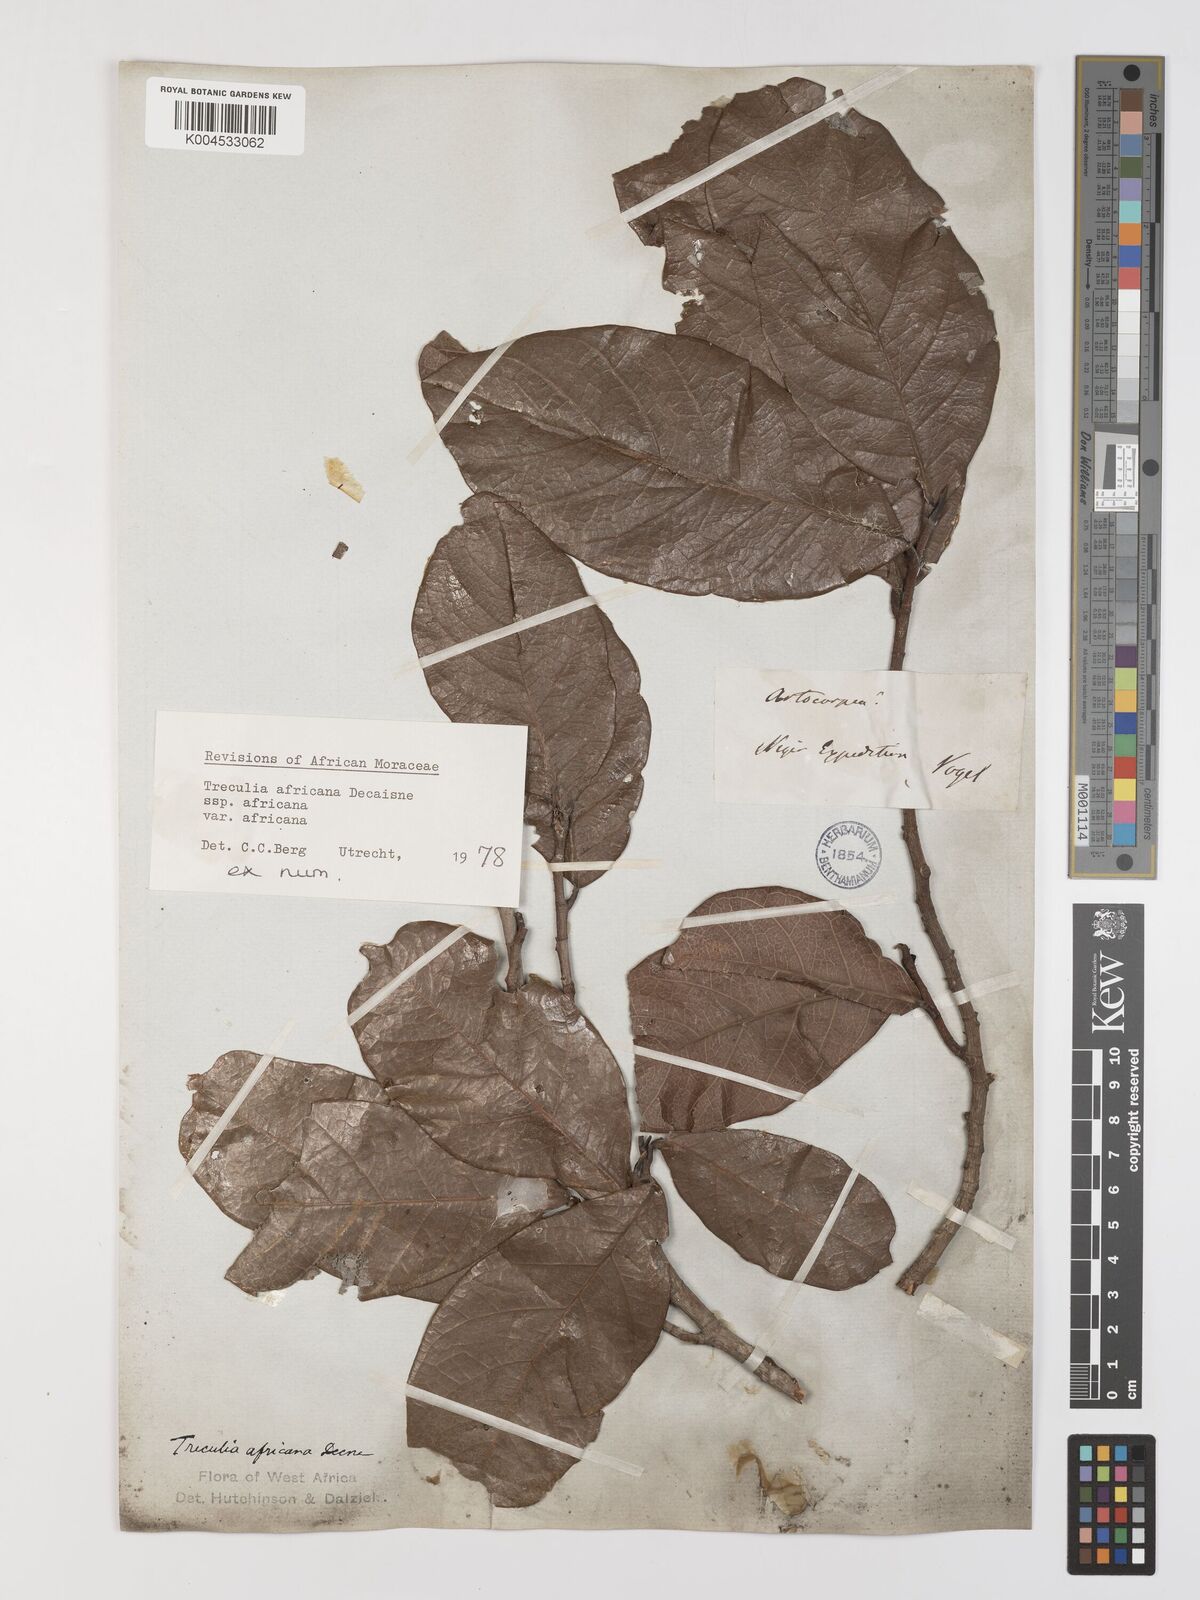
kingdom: Plantae
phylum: Tracheophyta
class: Magnoliopsida
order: Rosales
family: Moraceae
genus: Treculia
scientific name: Treculia africana
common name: African breadfruit
